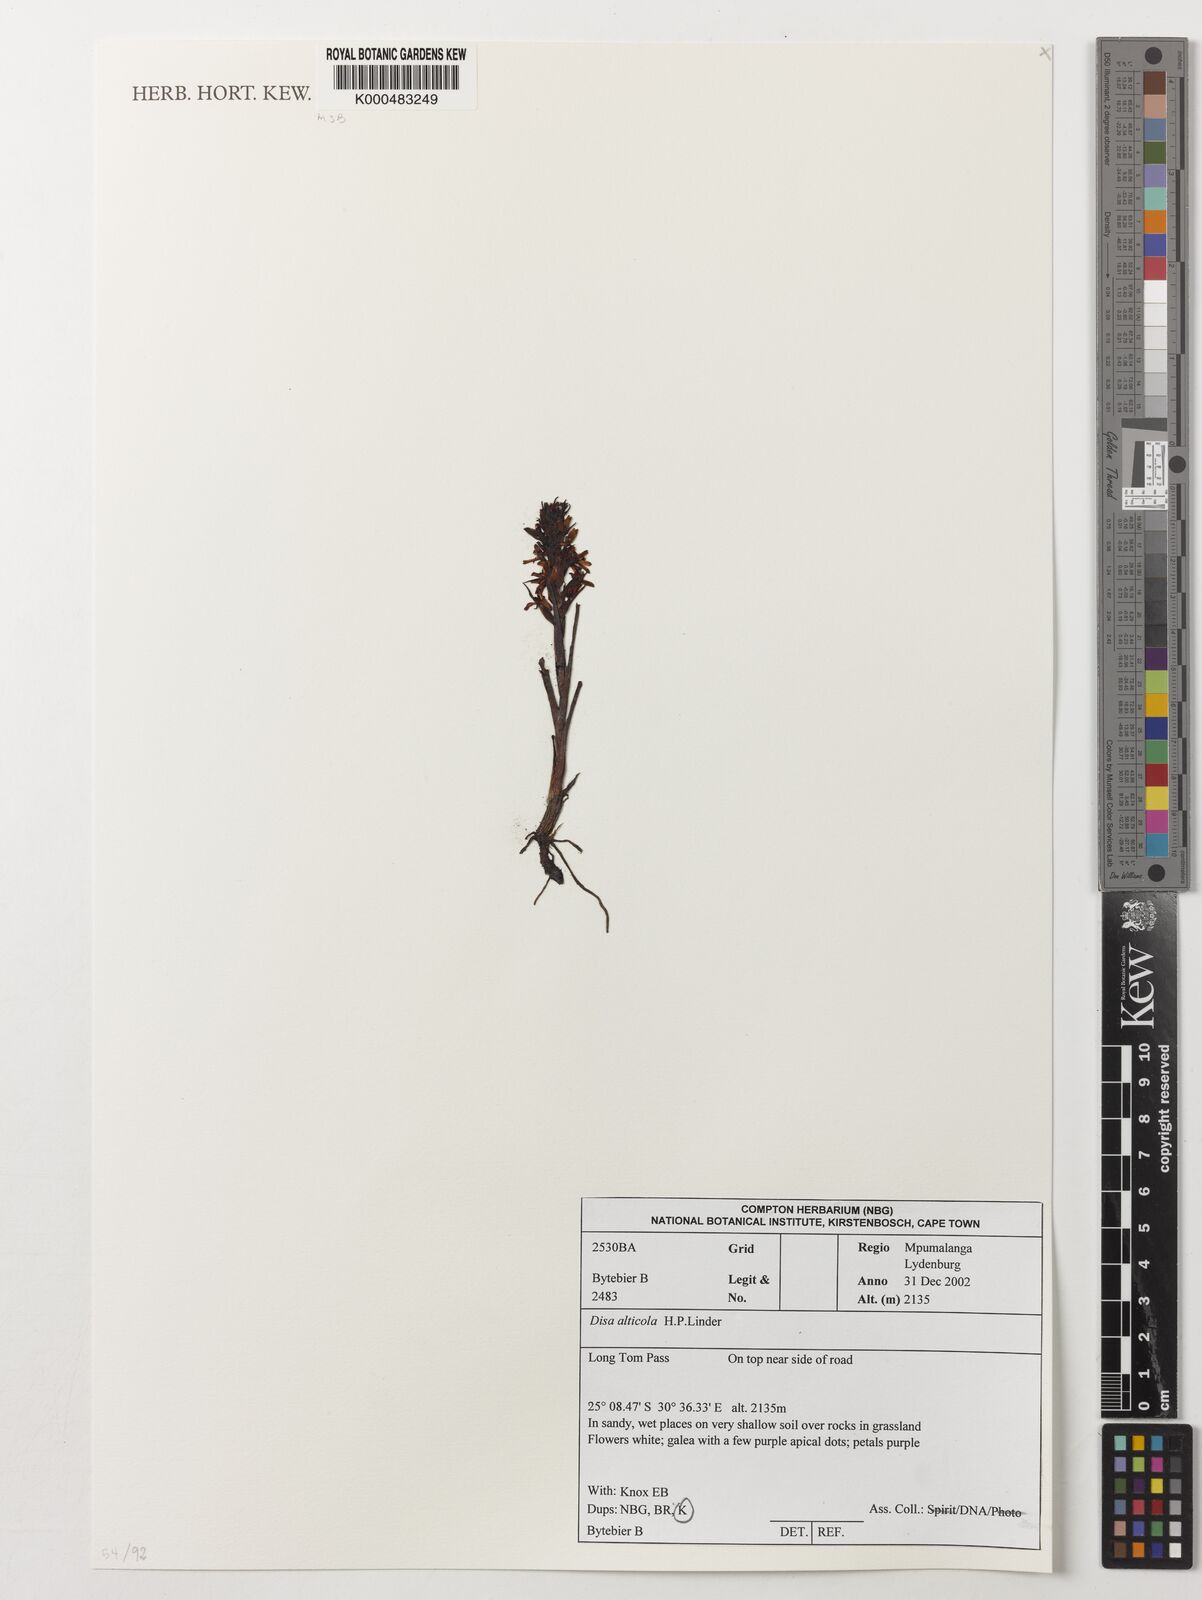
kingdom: Plantae
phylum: Tracheophyta
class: Liliopsida
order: Asparagales
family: Orchidaceae
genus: Disa
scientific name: Disa alticola
